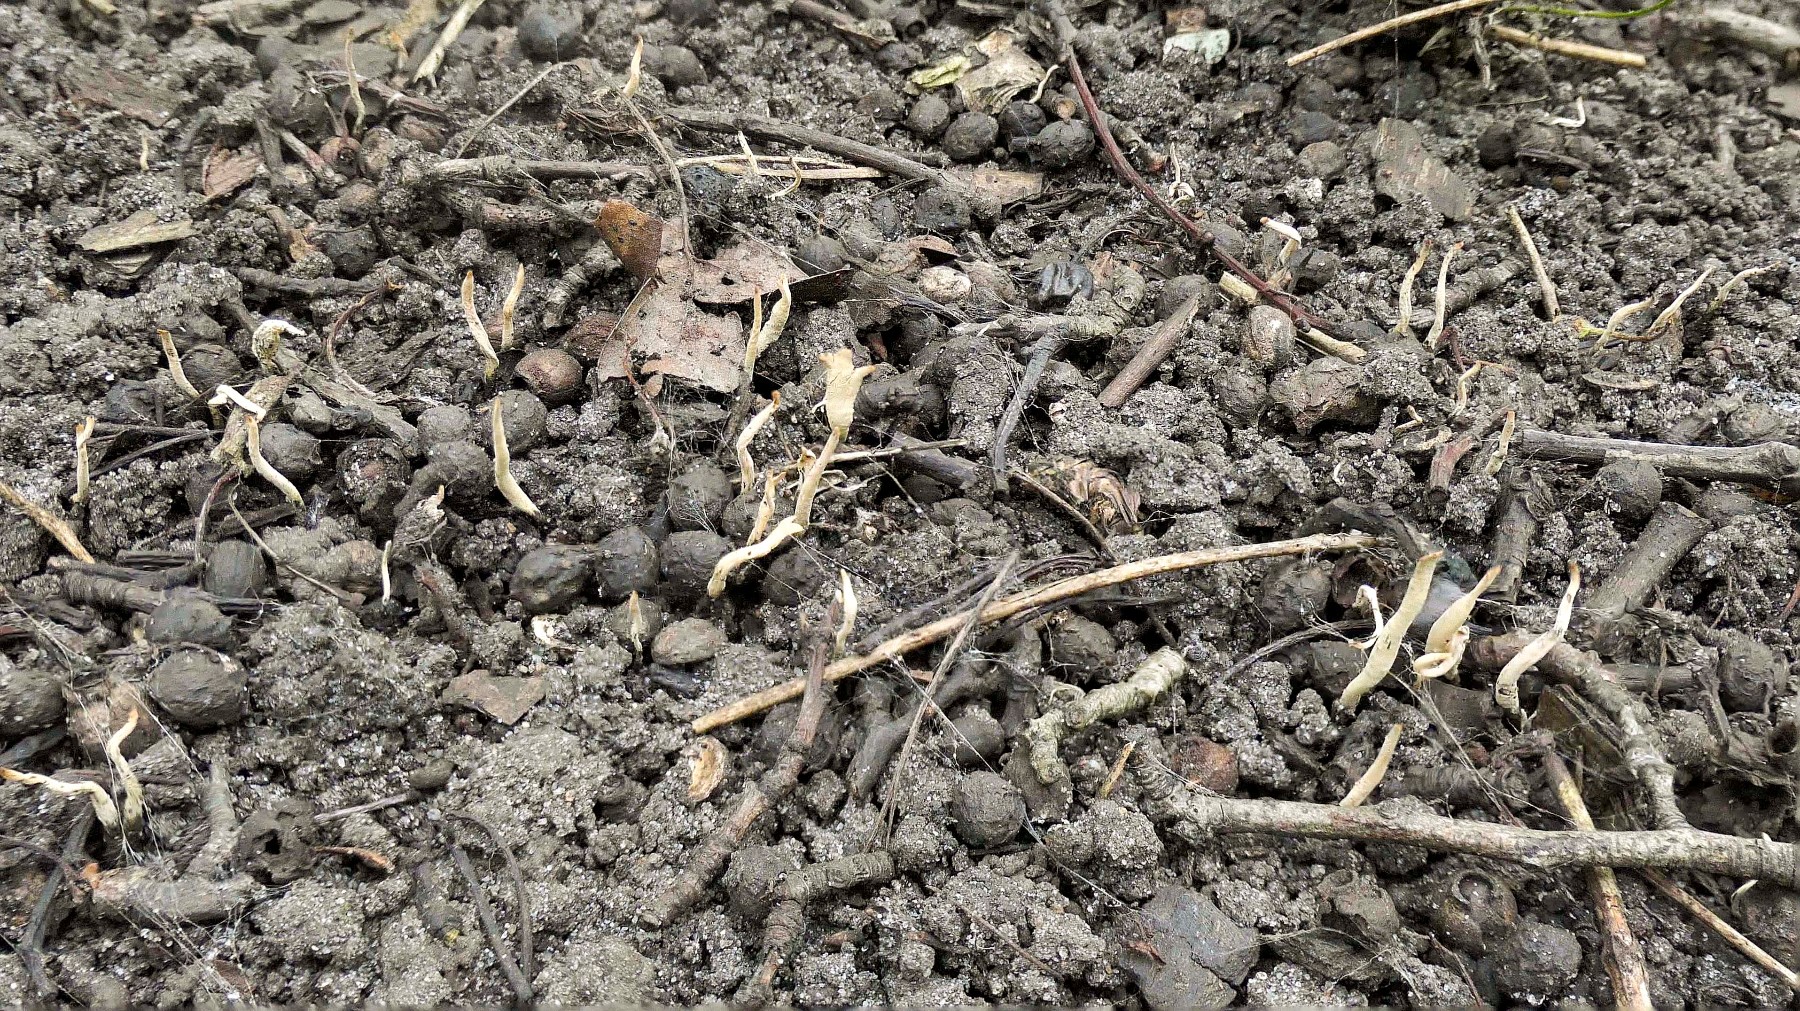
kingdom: Fungi
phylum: Ascomycota
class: Sordariomycetes
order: Xylariales
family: Xylariaceae
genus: Xylaria
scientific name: Xylaria oxyacanthae
